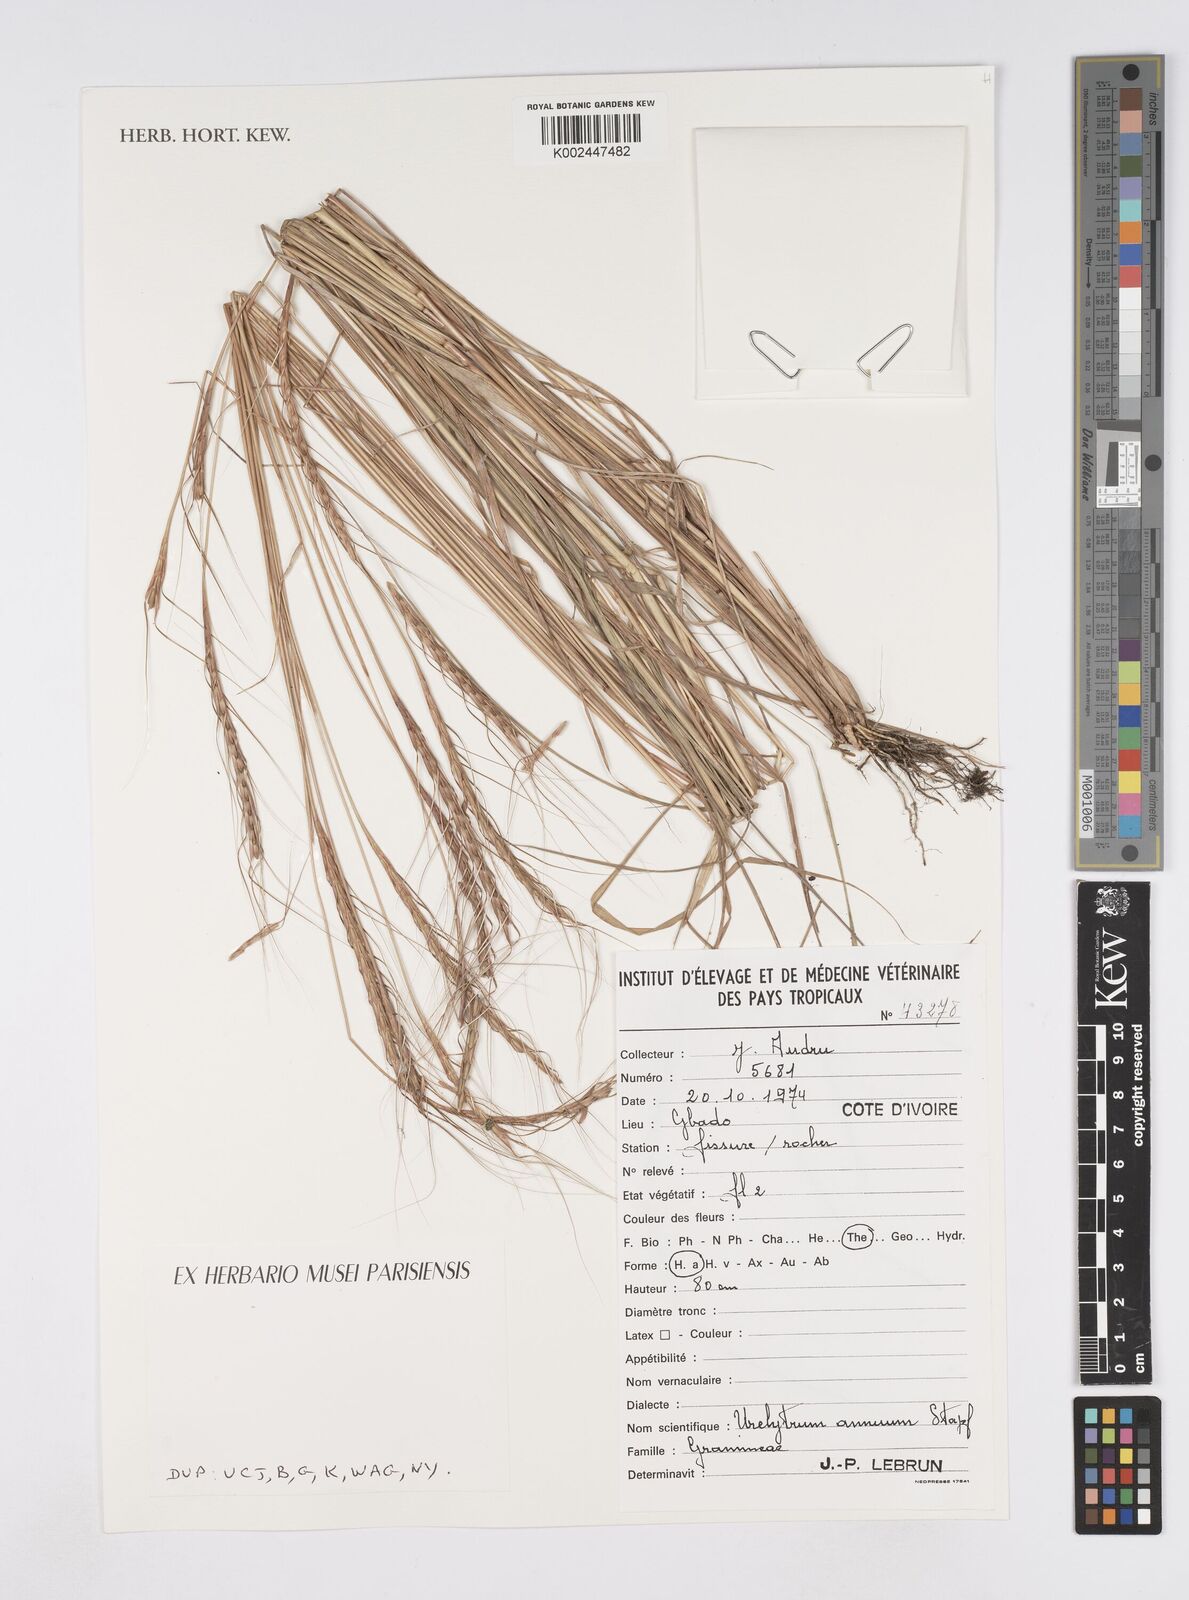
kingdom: Plantae
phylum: Tracheophyta
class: Liliopsida
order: Poales
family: Poaceae
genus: Urelytrum
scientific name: Urelytrum annuum
